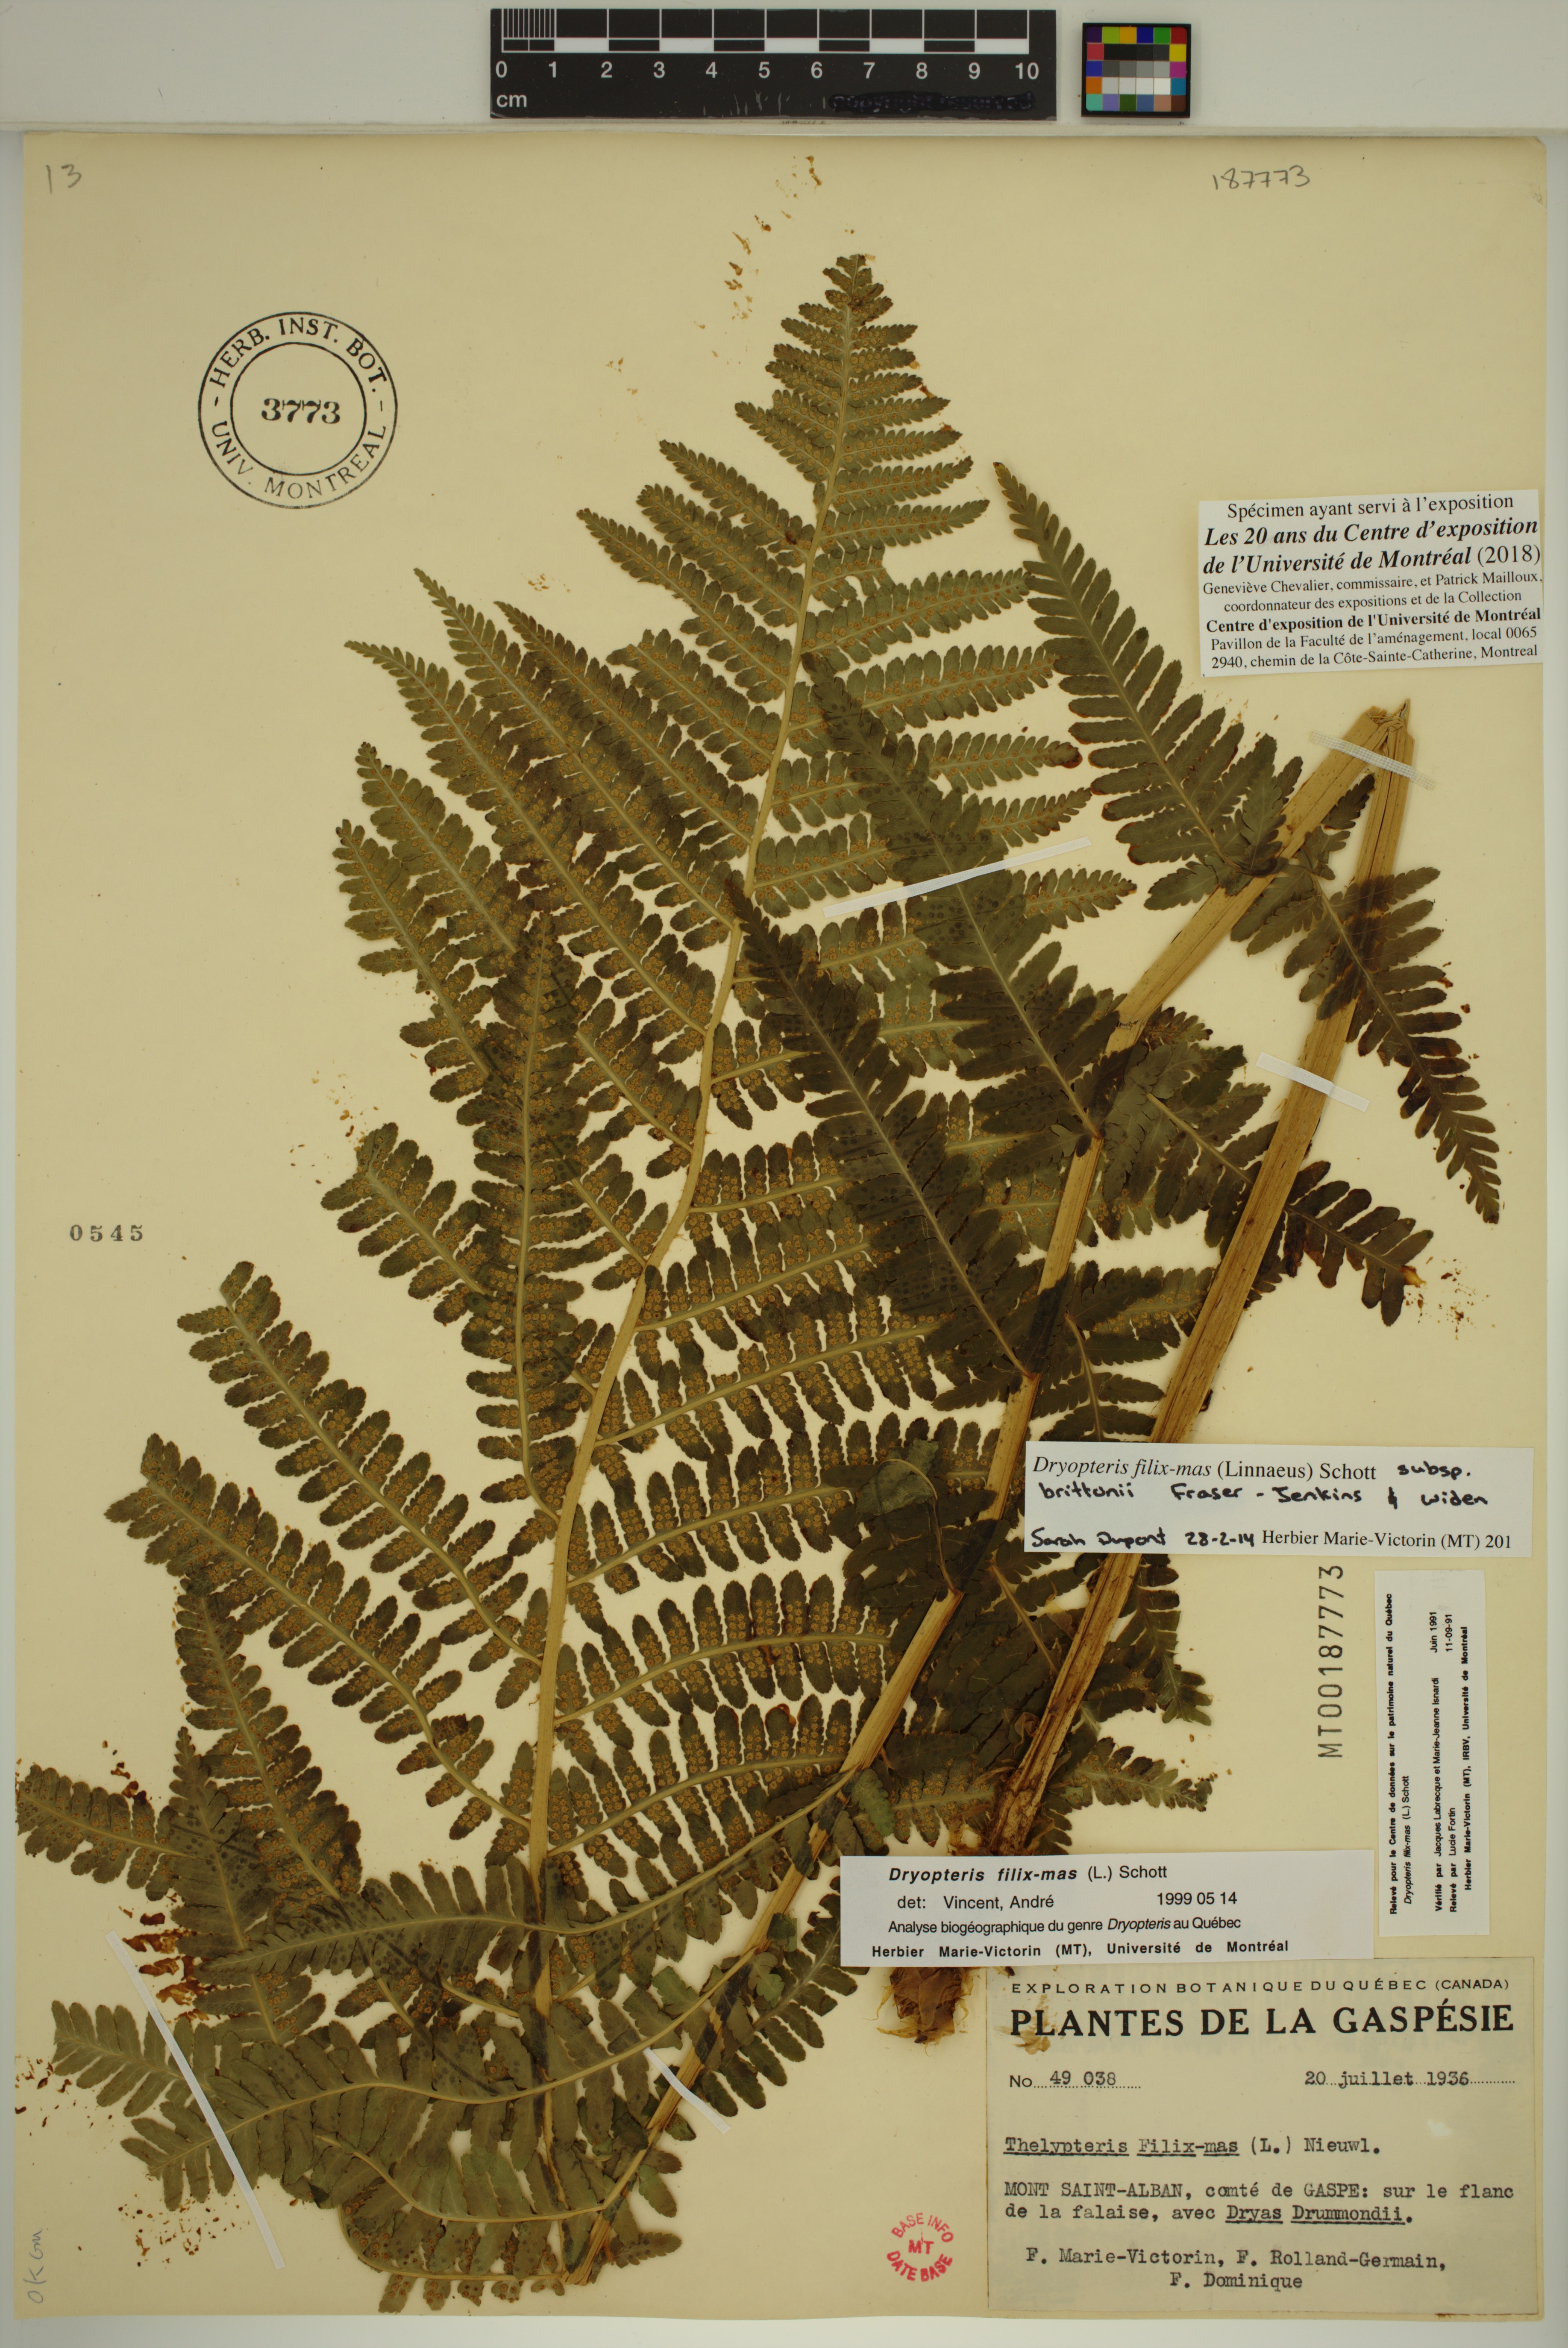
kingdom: Plantae
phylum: Tracheophyta
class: Polypodiopsida
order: Polypodiales
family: Dryopteridaceae
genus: Dryopteris
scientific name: Dryopteris filix-mas
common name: Male fern
